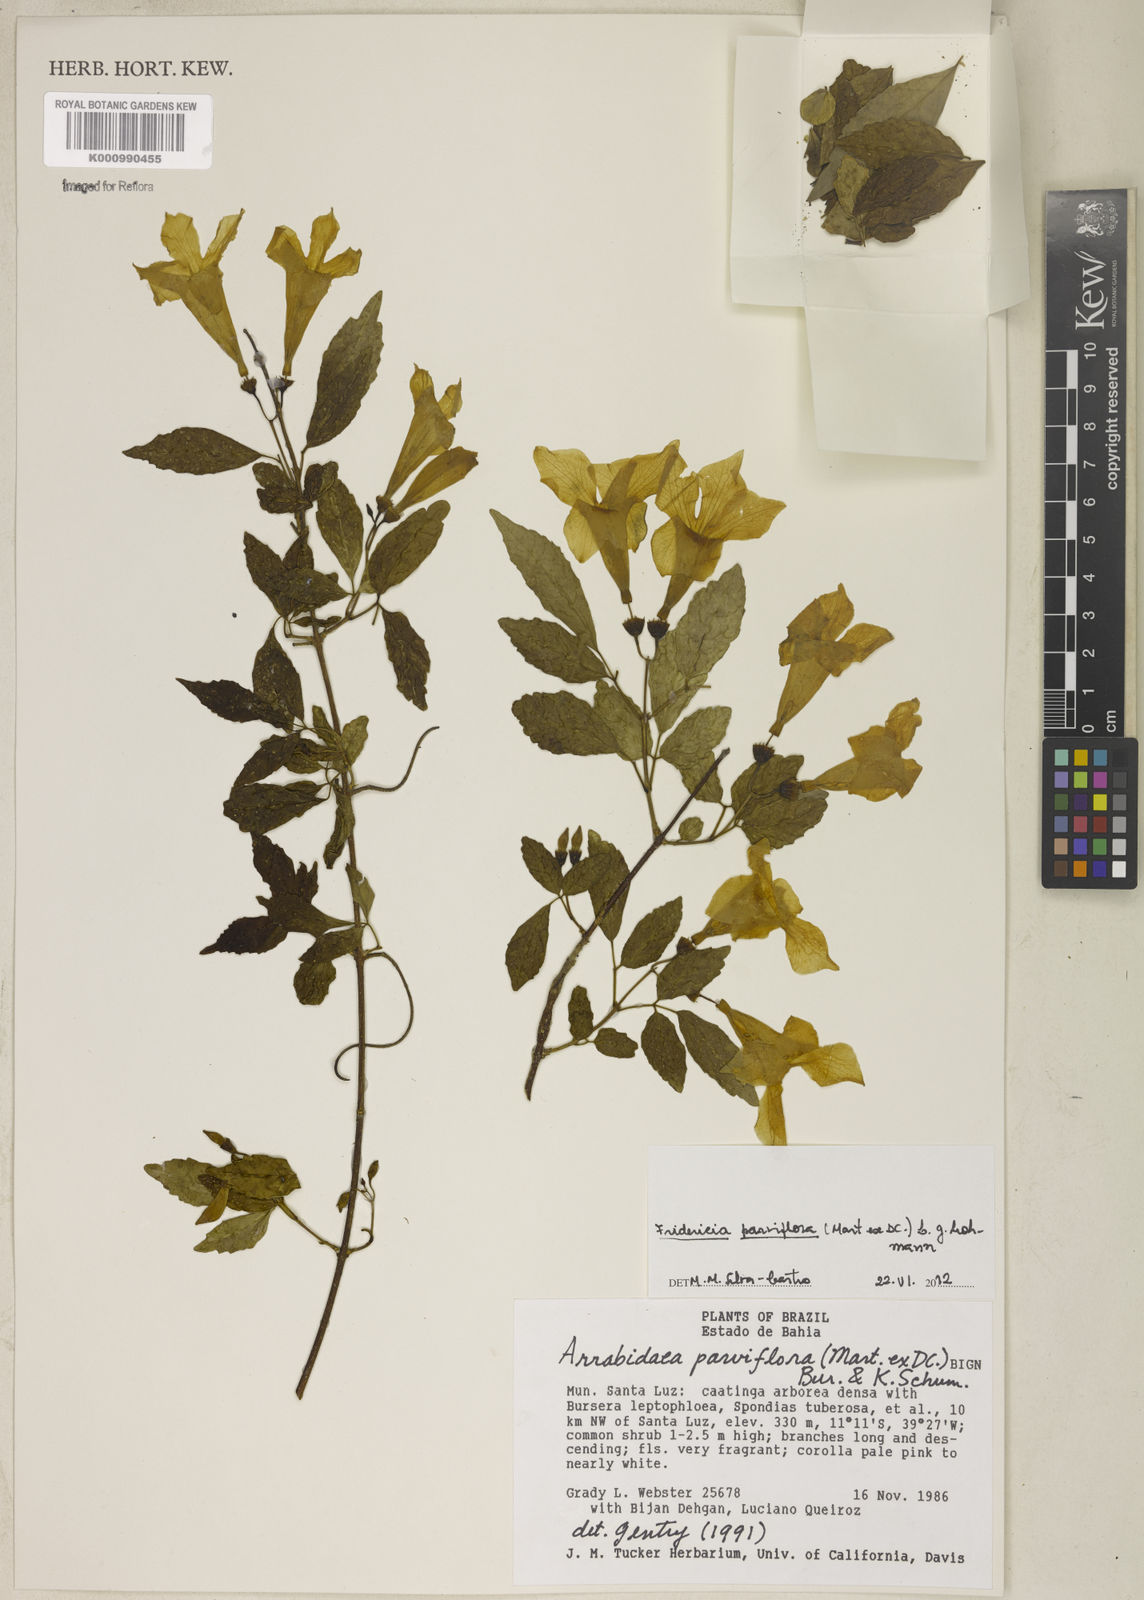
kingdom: Plantae
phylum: Tracheophyta
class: Magnoliopsida
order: Lamiales
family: Bignoniaceae
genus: Tanaecium
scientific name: Tanaecium parviflorum
